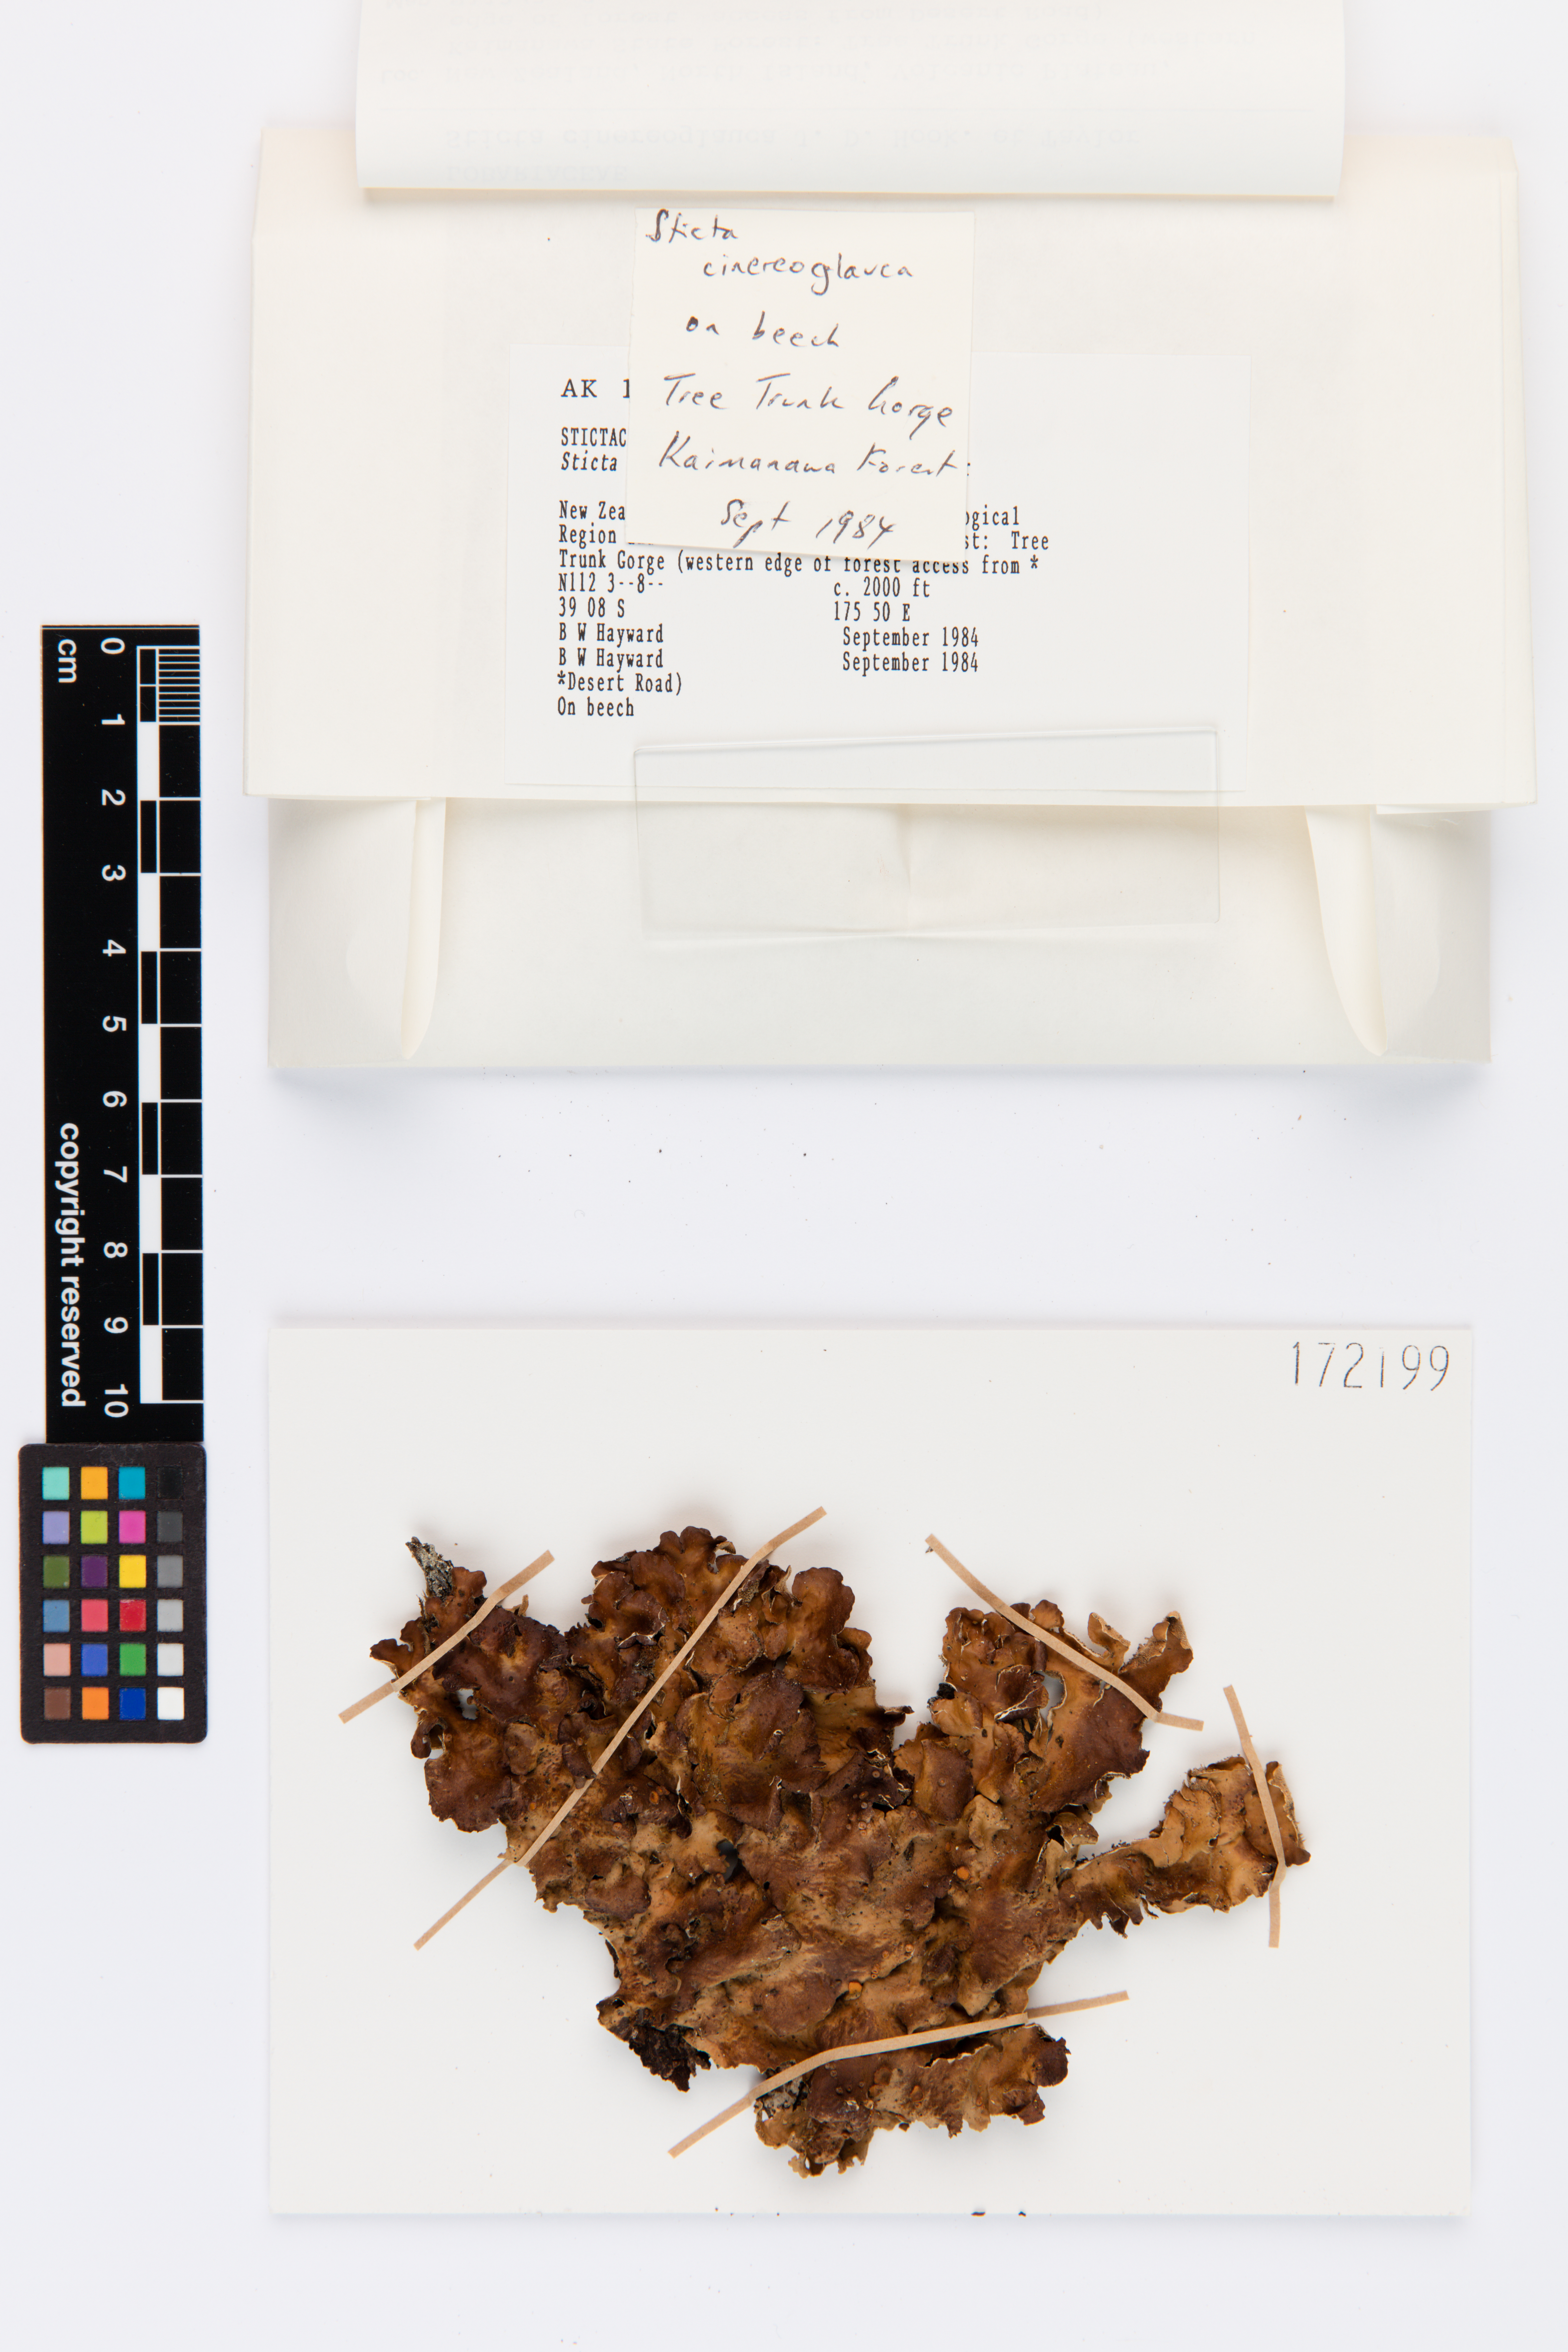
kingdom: Fungi
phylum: Ascomycota
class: Lecanoromycetes
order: Peltigerales
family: Lobariaceae
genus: Sticta
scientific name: Sticta cinereoglauca
